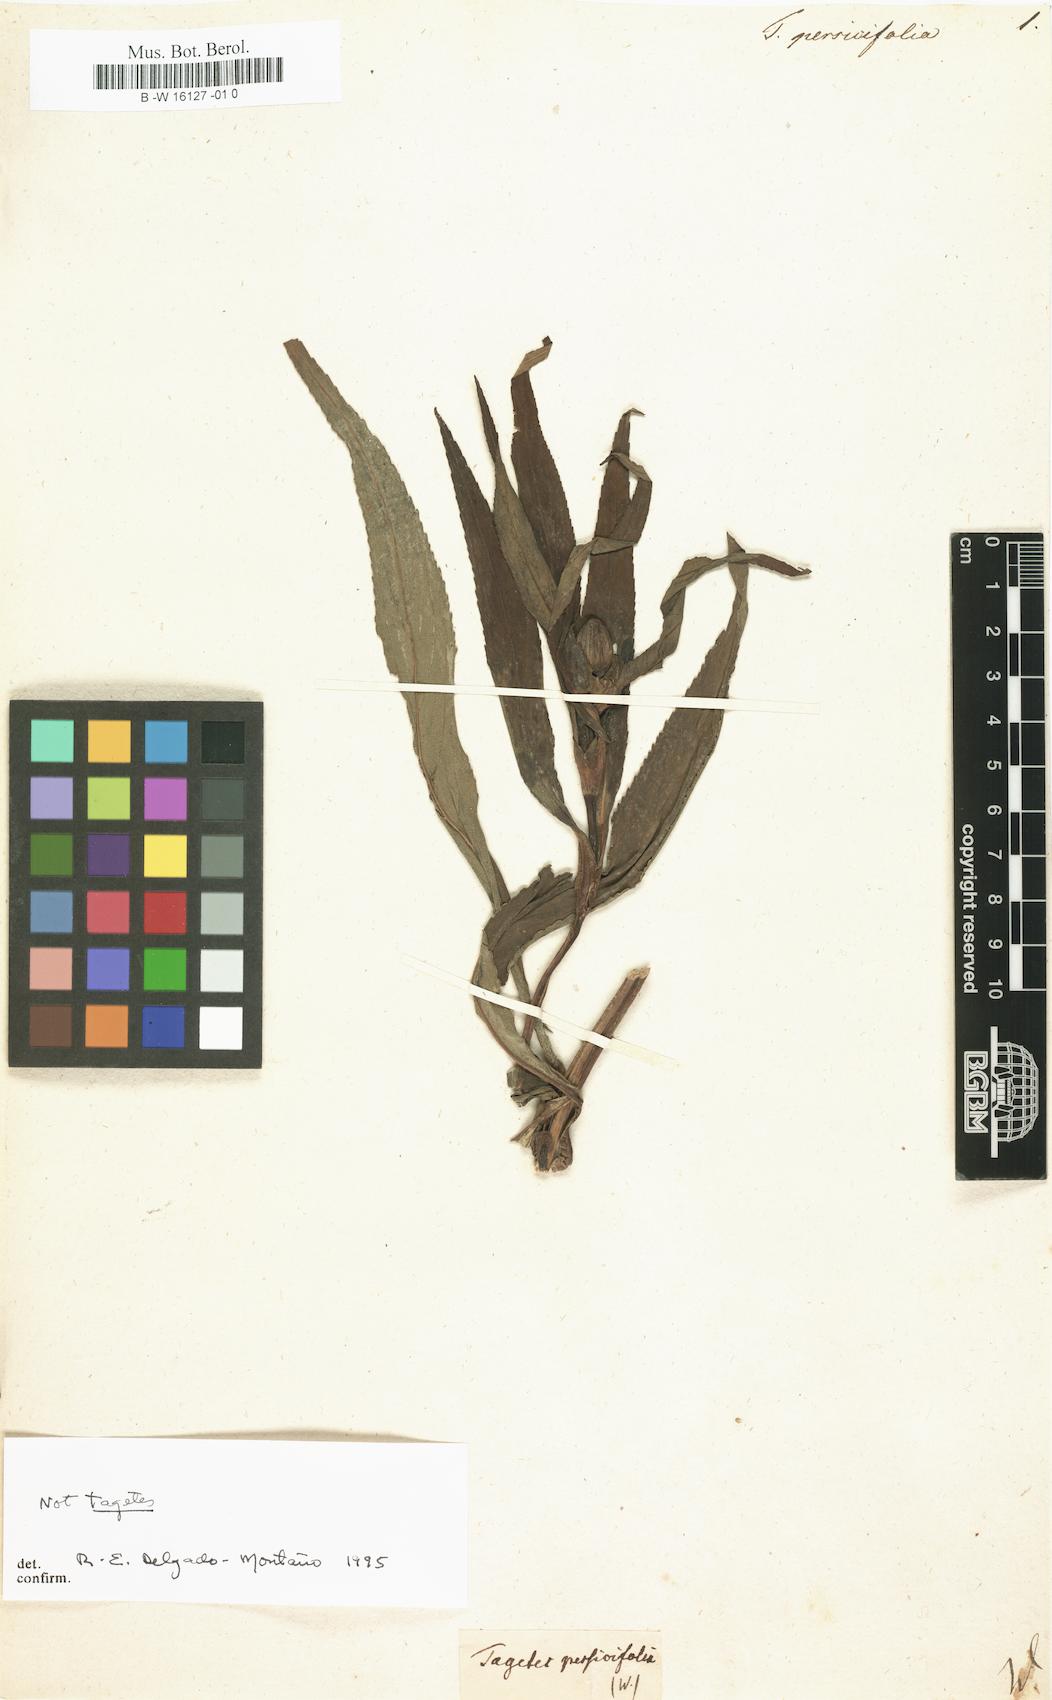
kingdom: Plantae
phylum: Tracheophyta
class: Magnoliopsida
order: Asterales
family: Asteraceae
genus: Tagetes
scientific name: Tagetes persicifolia
